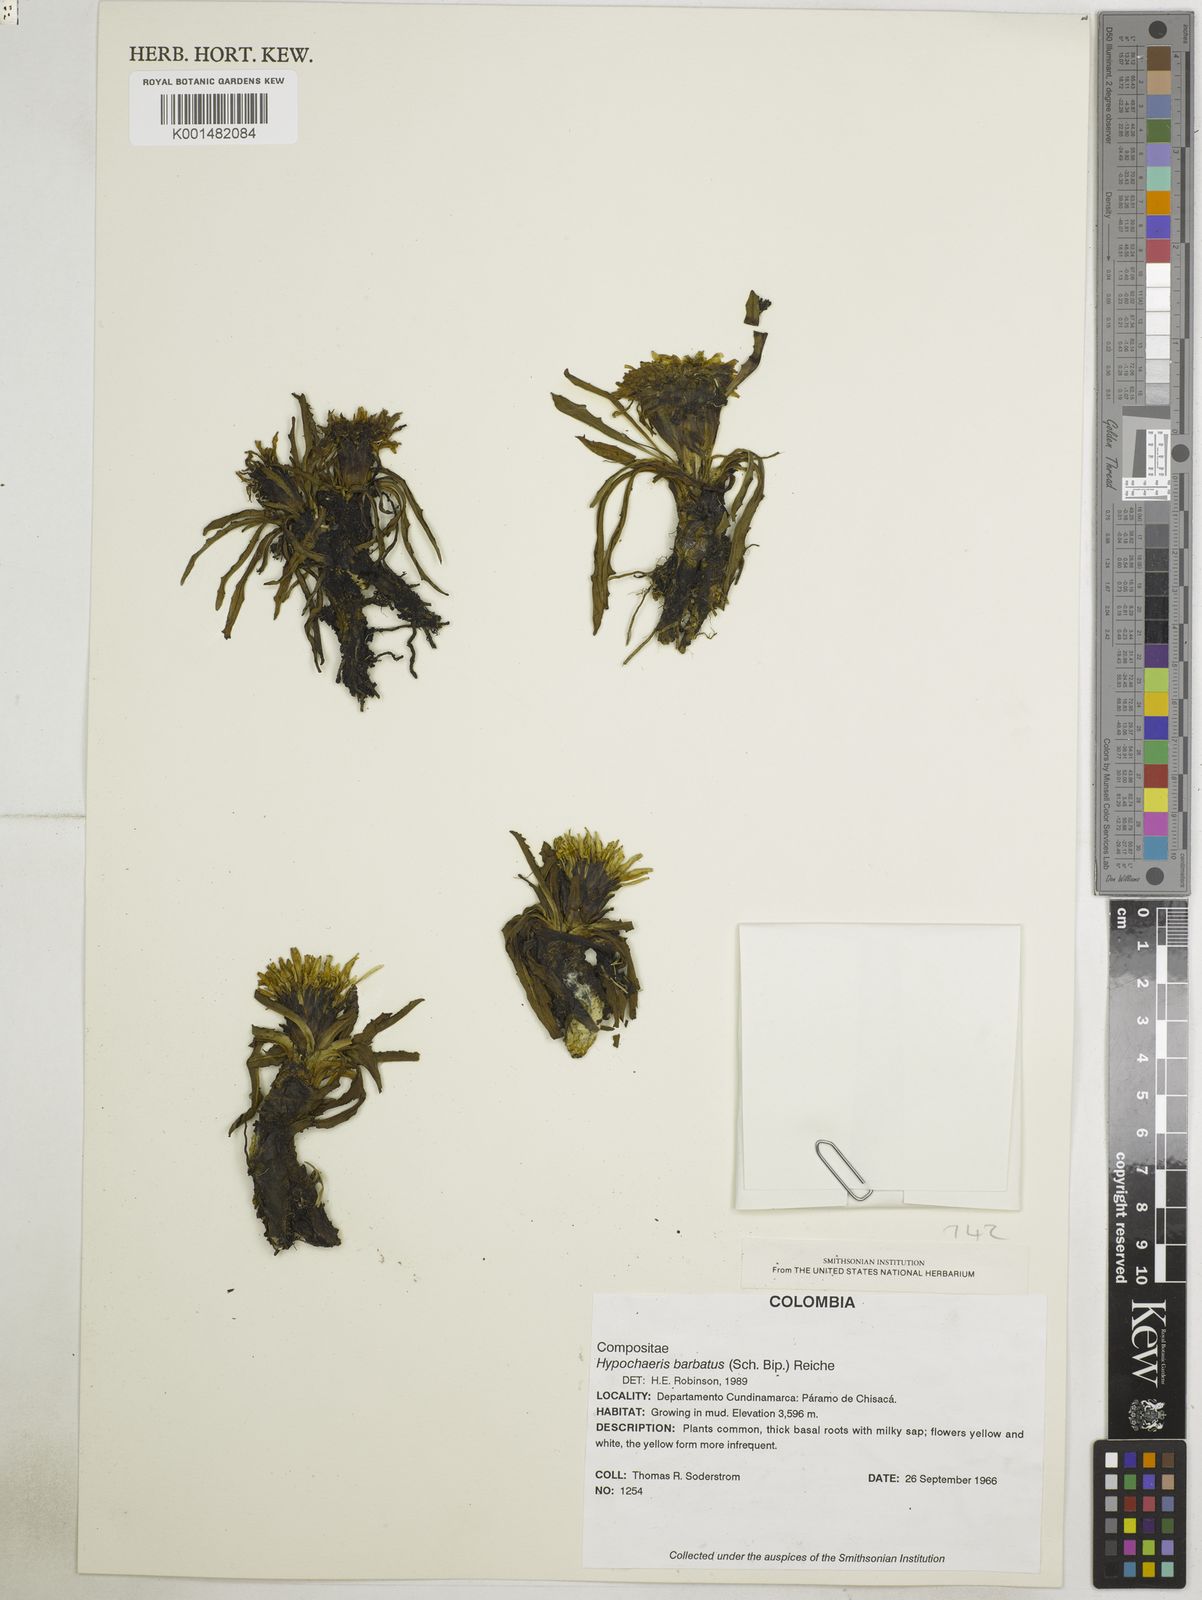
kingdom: Plantae
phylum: Tracheophyta
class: Magnoliopsida
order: Asterales
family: Asteraceae
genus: Hypochaeris
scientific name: Hypochaeris sessiliflora
